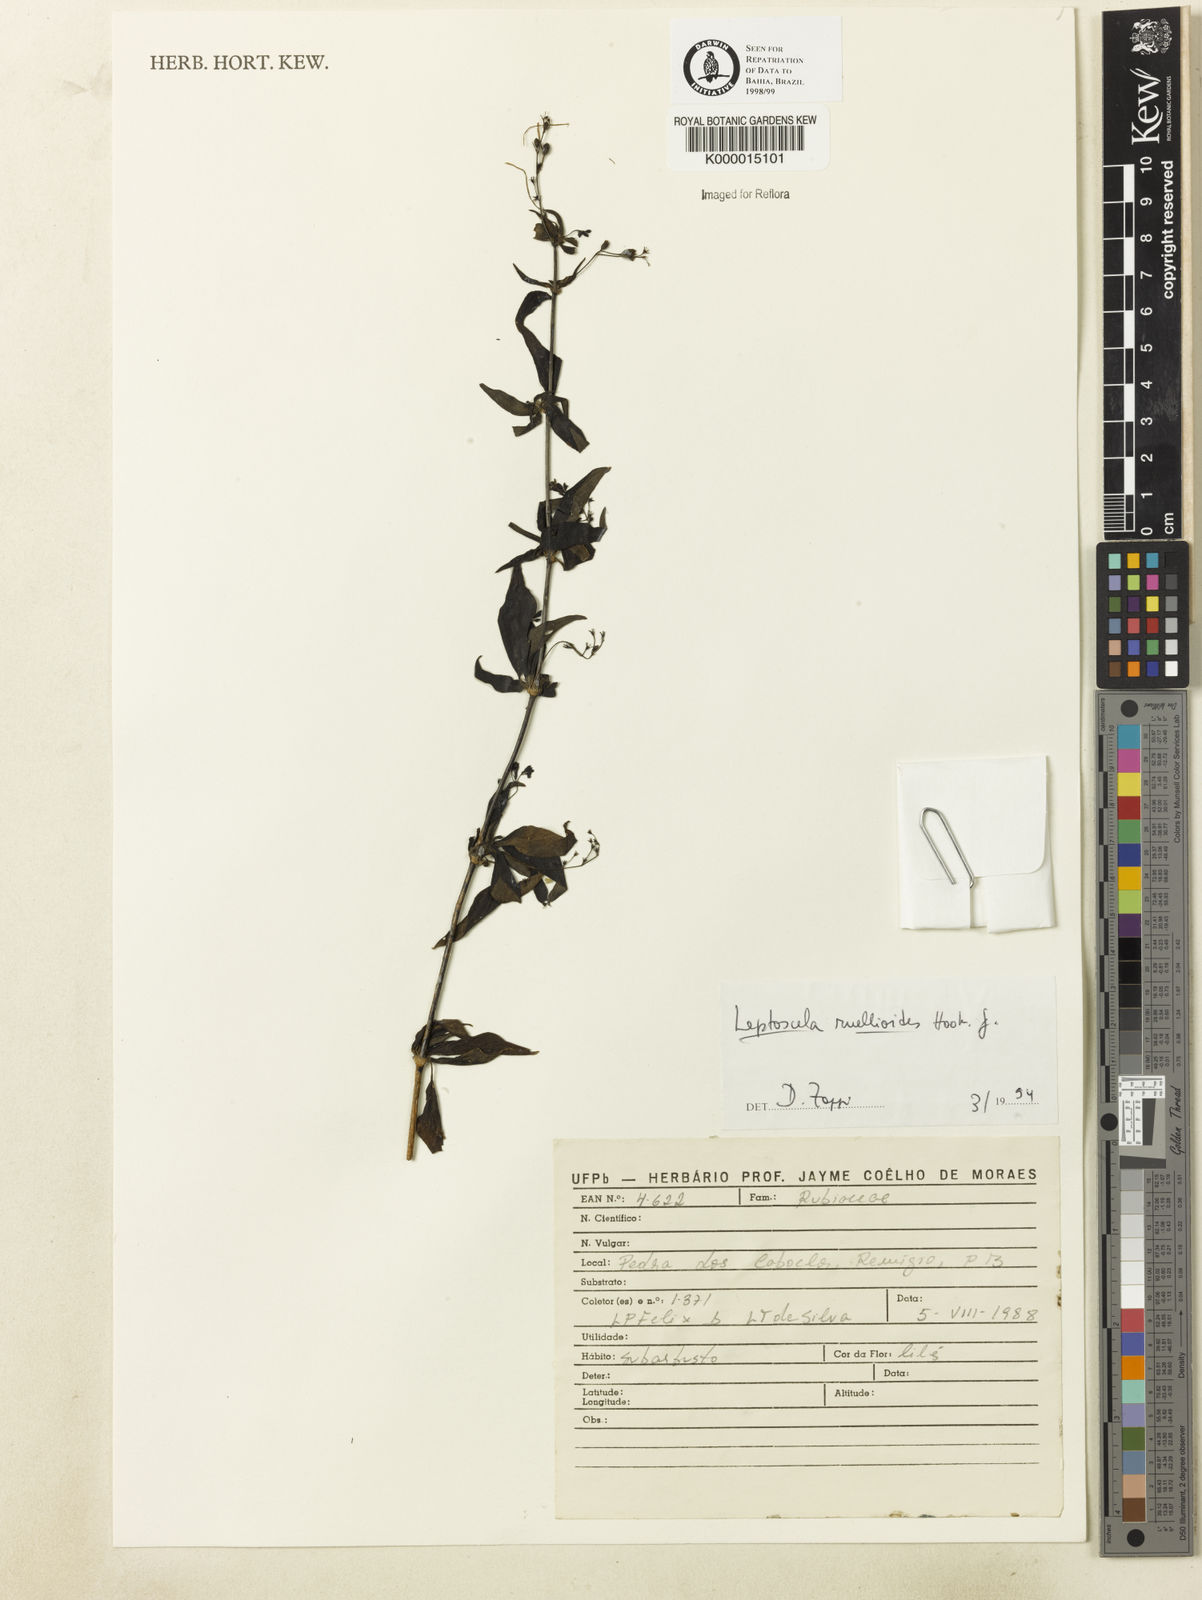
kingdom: Plantae
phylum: Tracheophyta
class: Magnoliopsida
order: Gentianales
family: Rubiaceae
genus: Leptoscela
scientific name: Leptoscela
